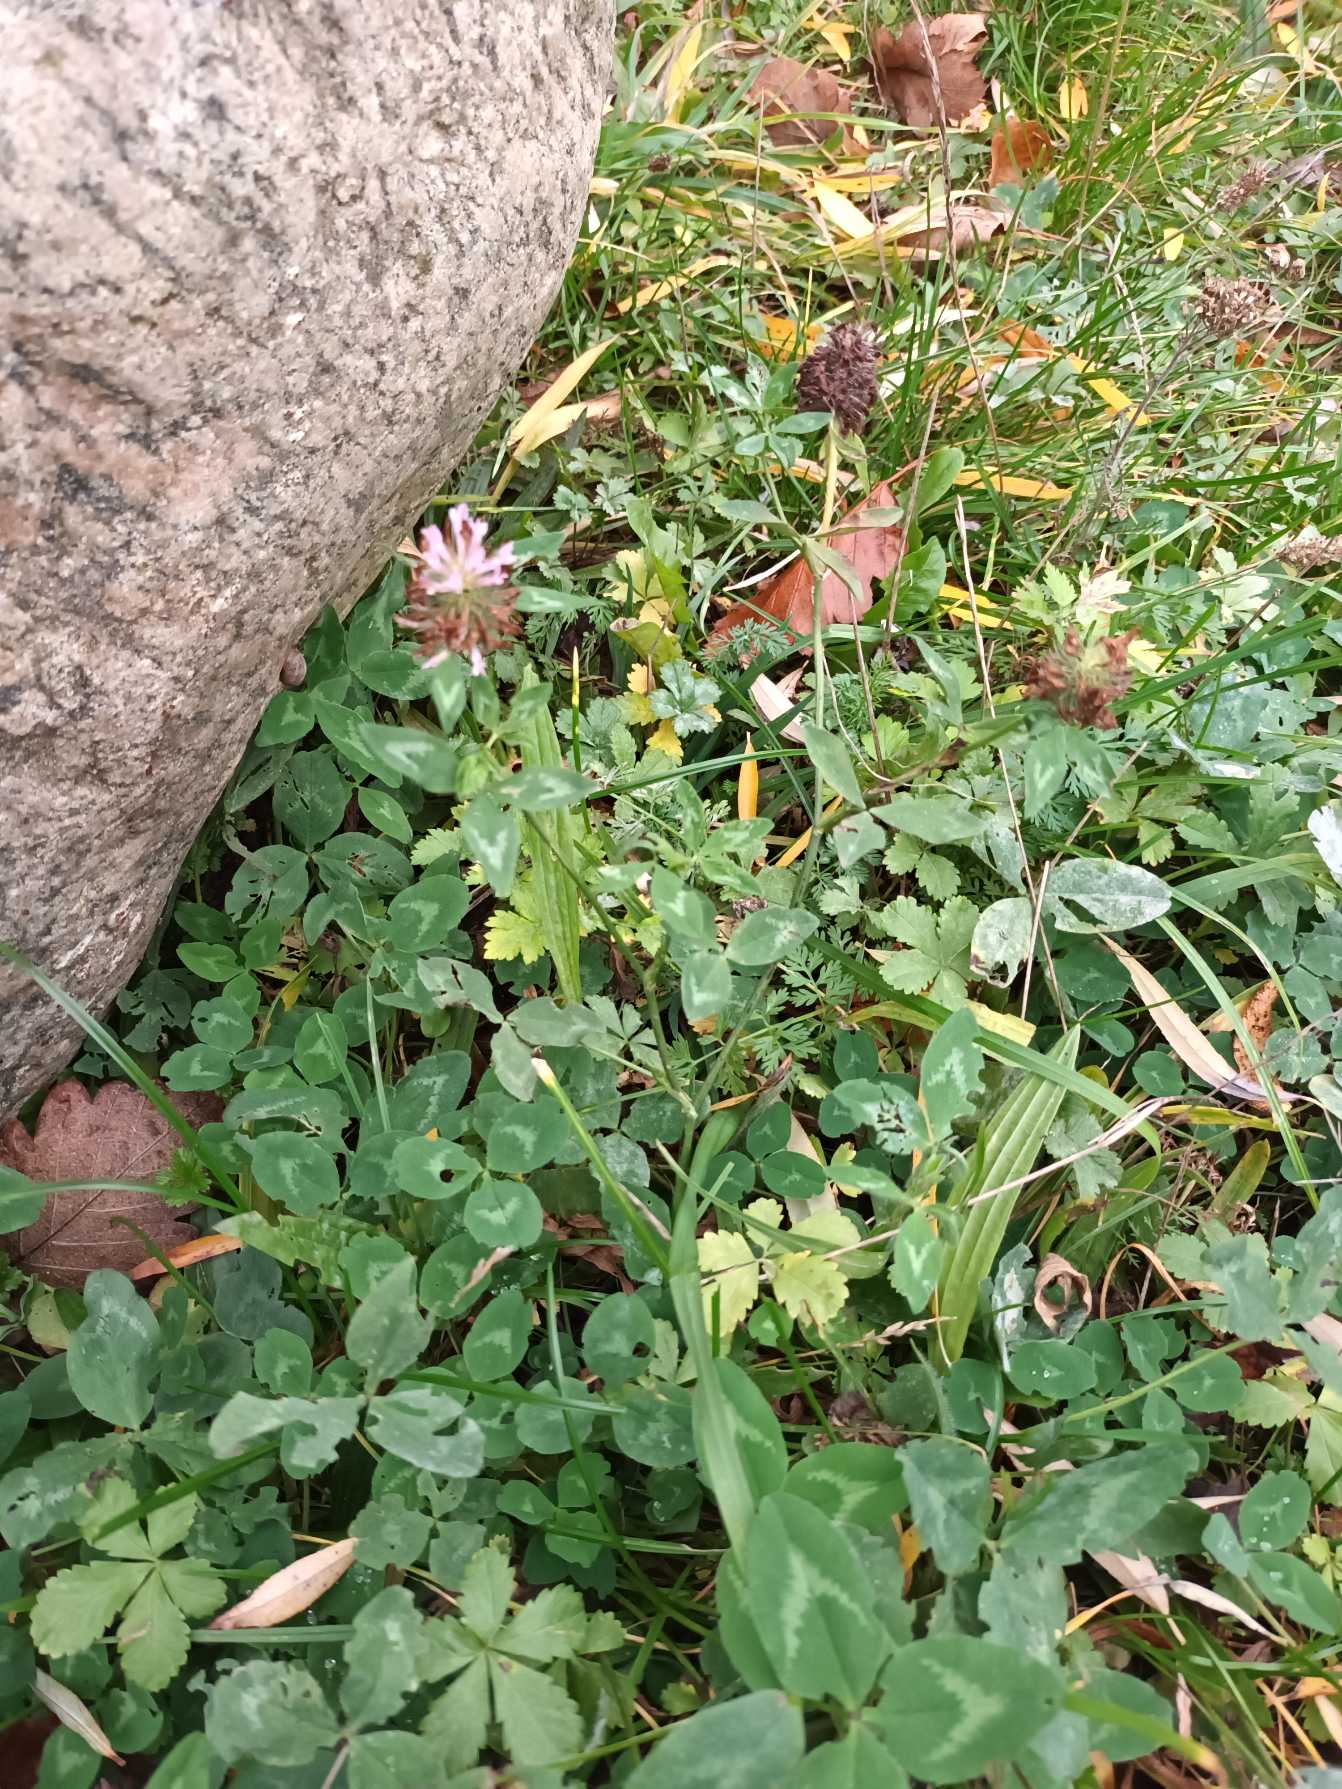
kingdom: Plantae
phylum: Tracheophyta
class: Magnoliopsida
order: Fabales
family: Fabaceae
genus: Trifolium
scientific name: Trifolium pratense
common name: Rød-kløver
